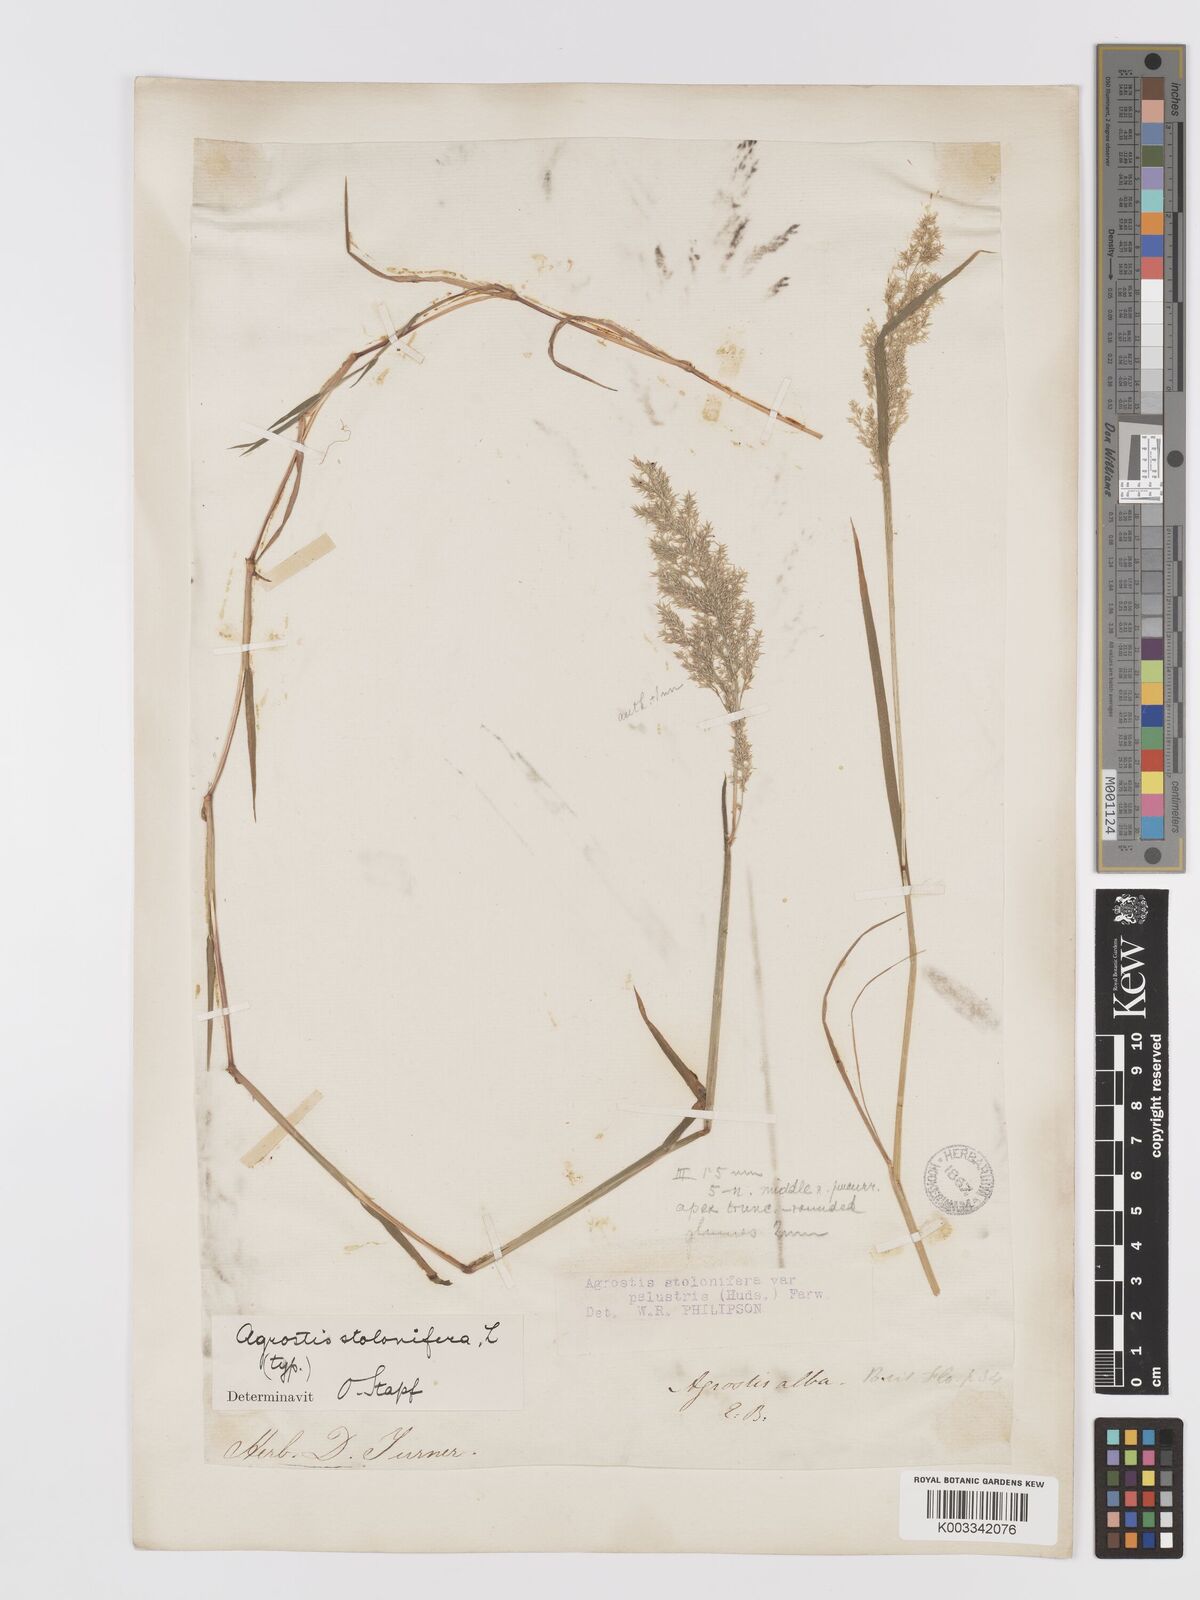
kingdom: Plantae
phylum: Tracheophyta
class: Liliopsida
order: Poales
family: Poaceae
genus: Agrostis
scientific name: Agrostis stolonifera
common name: Creeping bentgrass
